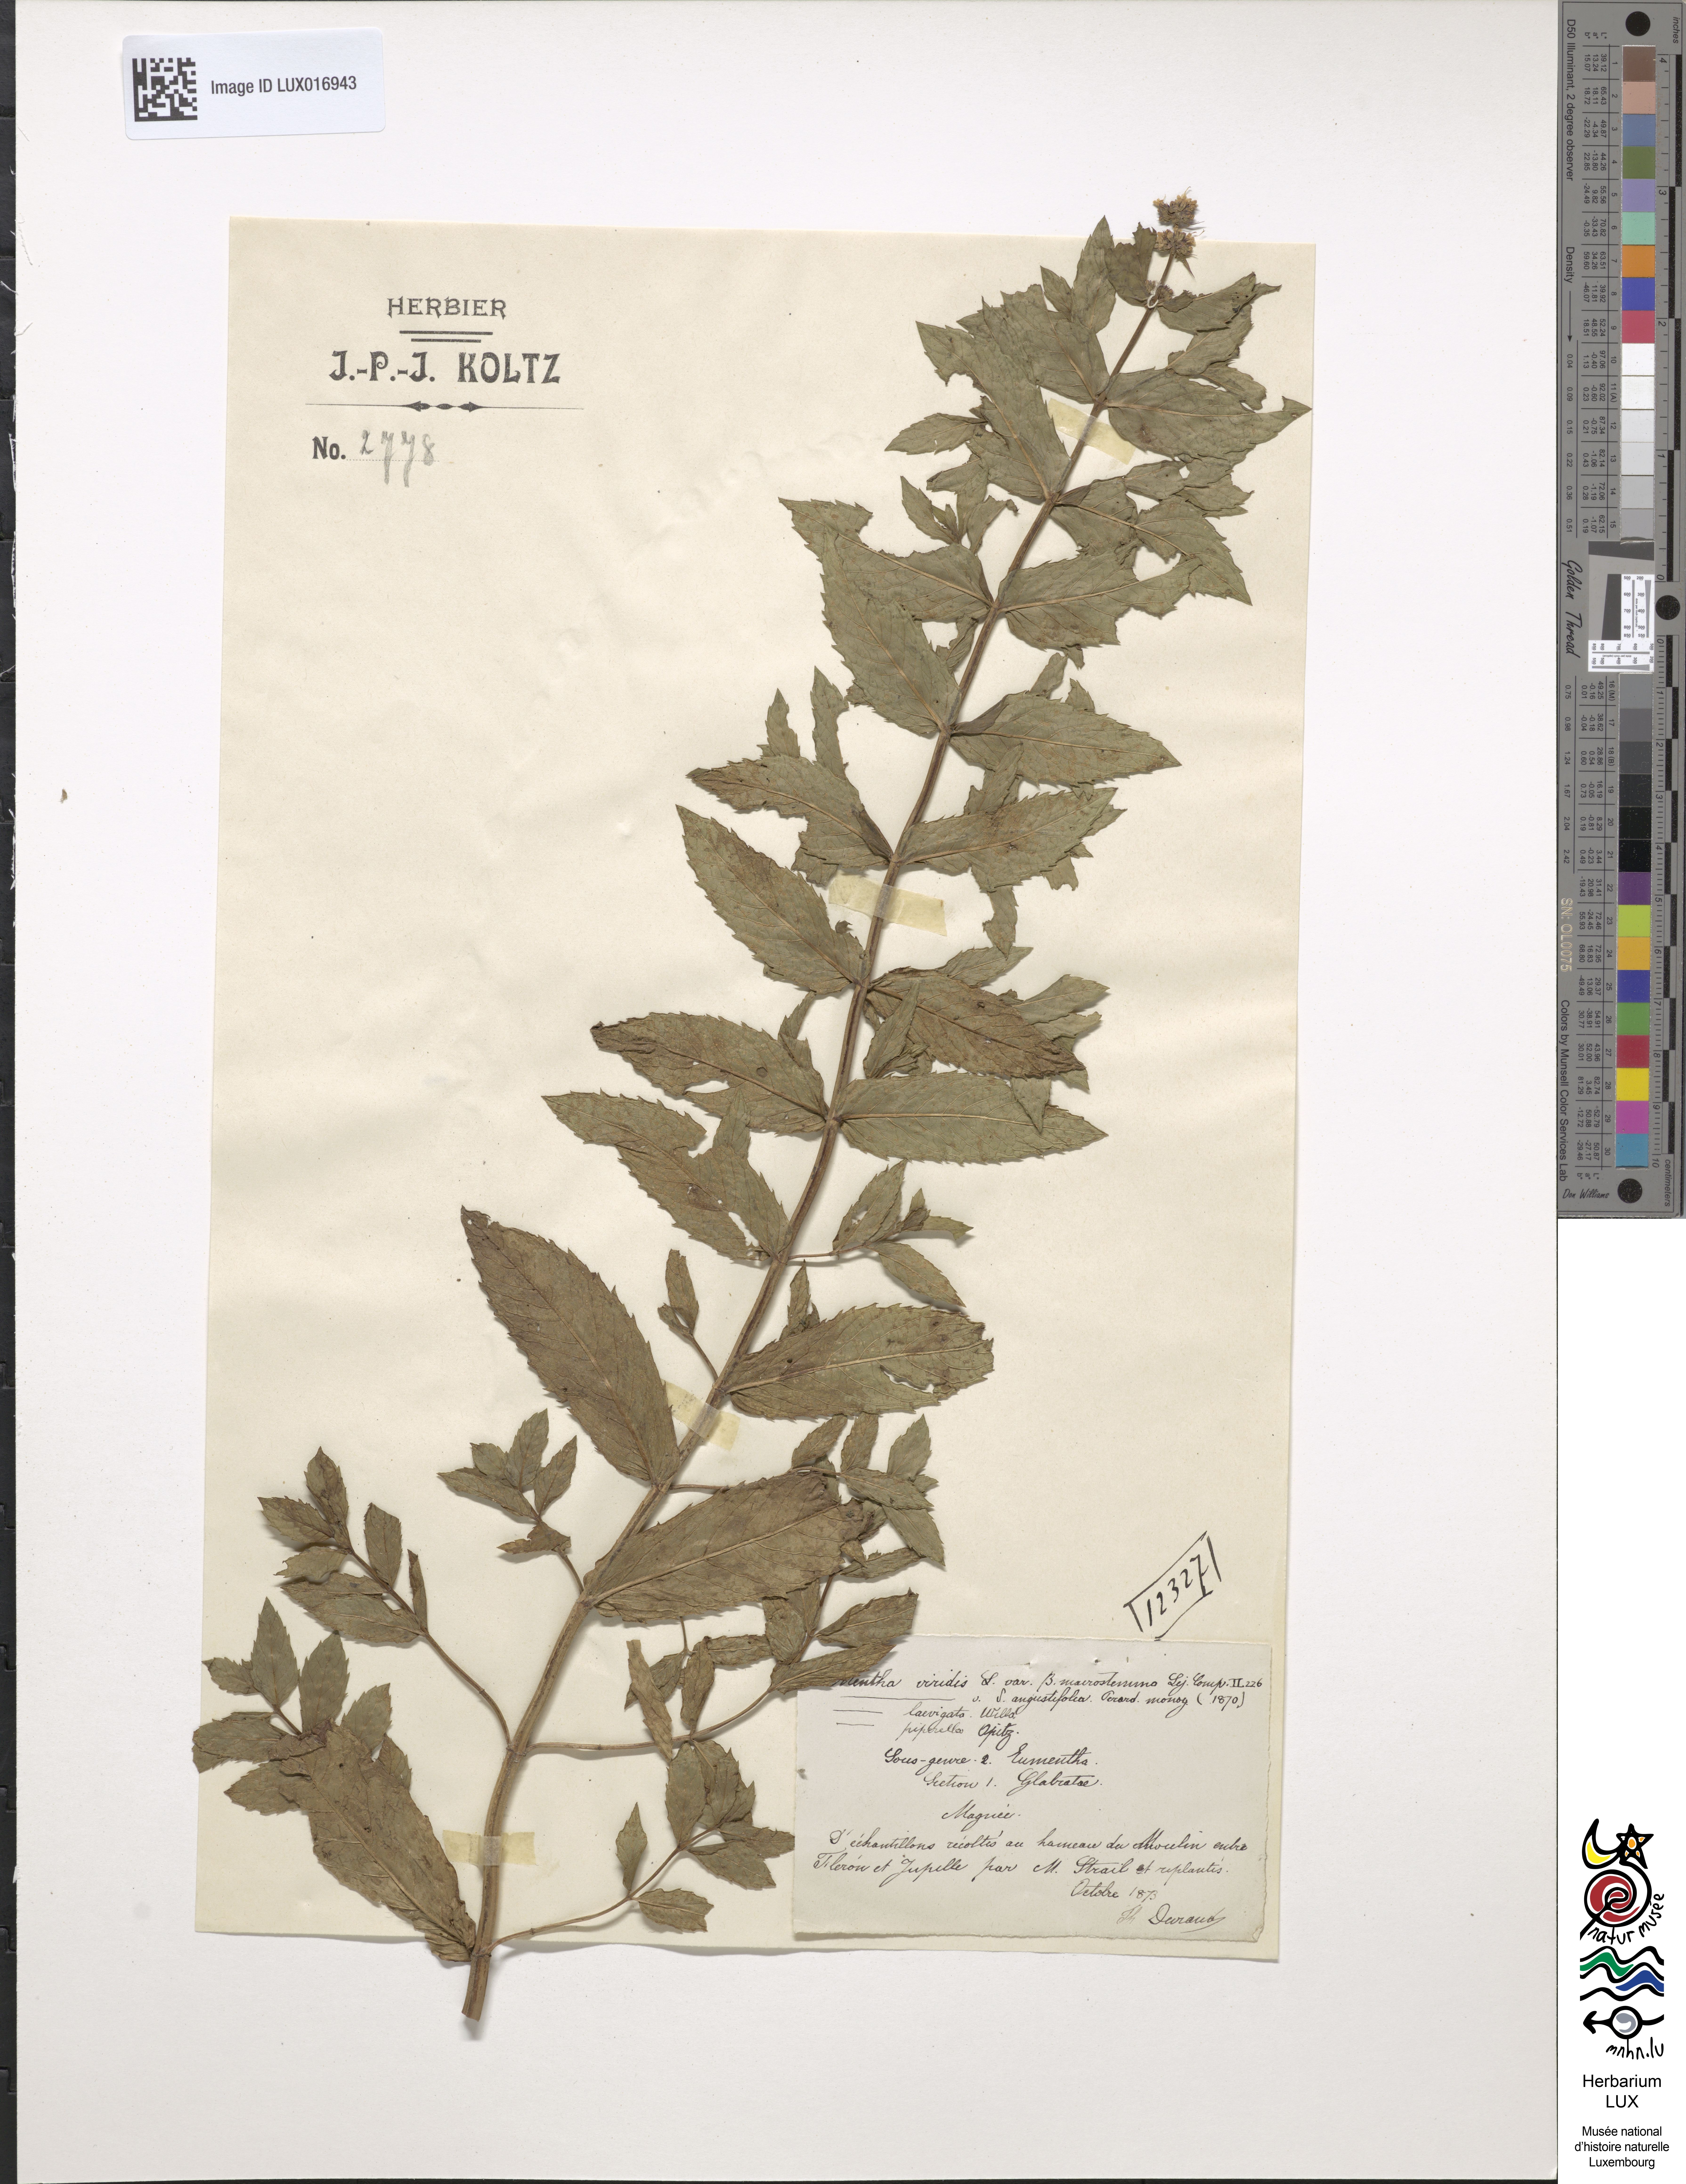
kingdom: Plantae
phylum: Tracheophyta
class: Magnoliopsida
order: Lamiales
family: Lamiaceae
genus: Mentha
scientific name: Mentha spicata
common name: Spearmint
